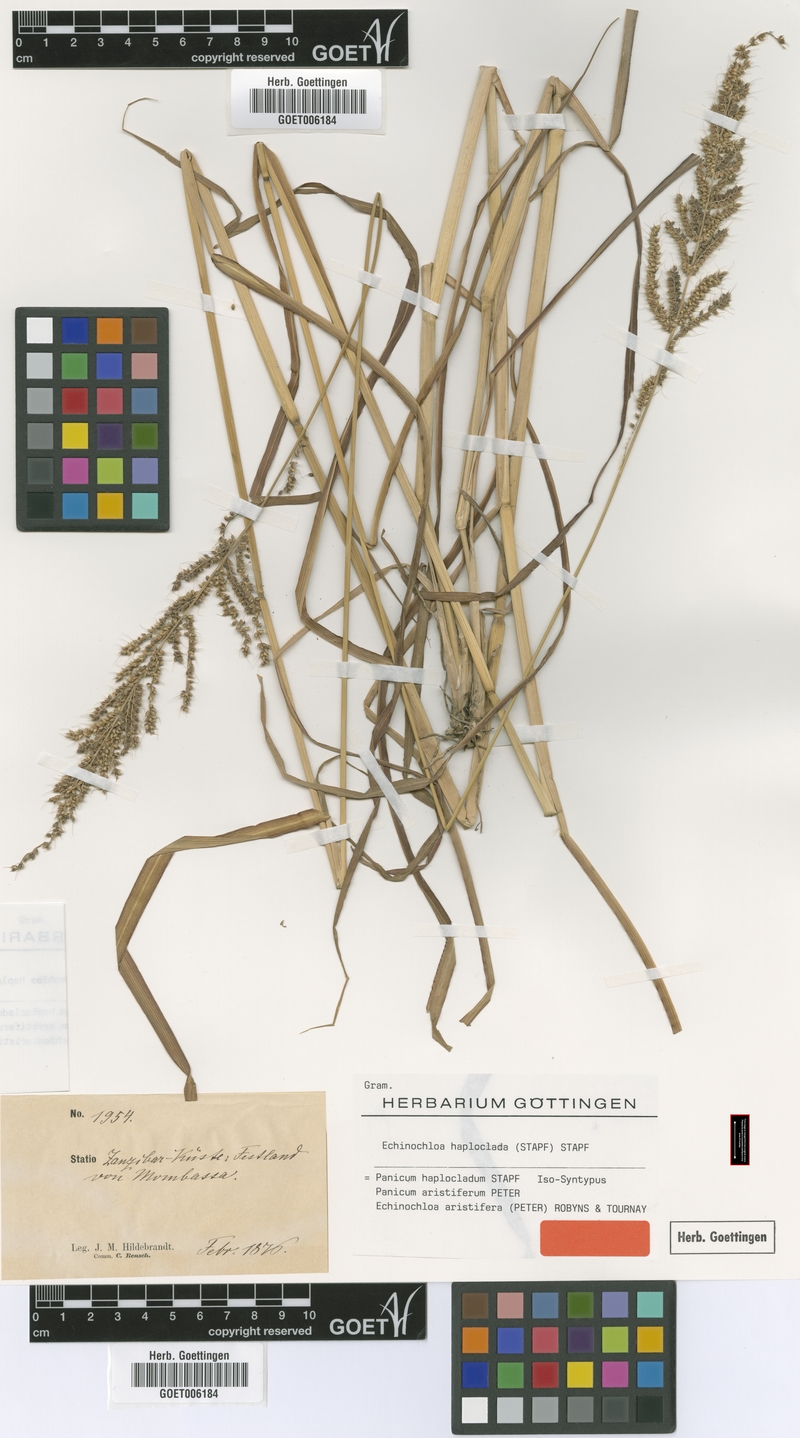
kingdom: Plantae
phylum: Tracheophyta
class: Liliopsida
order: Poales
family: Poaceae
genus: Echinochloa
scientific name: Echinochloa haploclada
